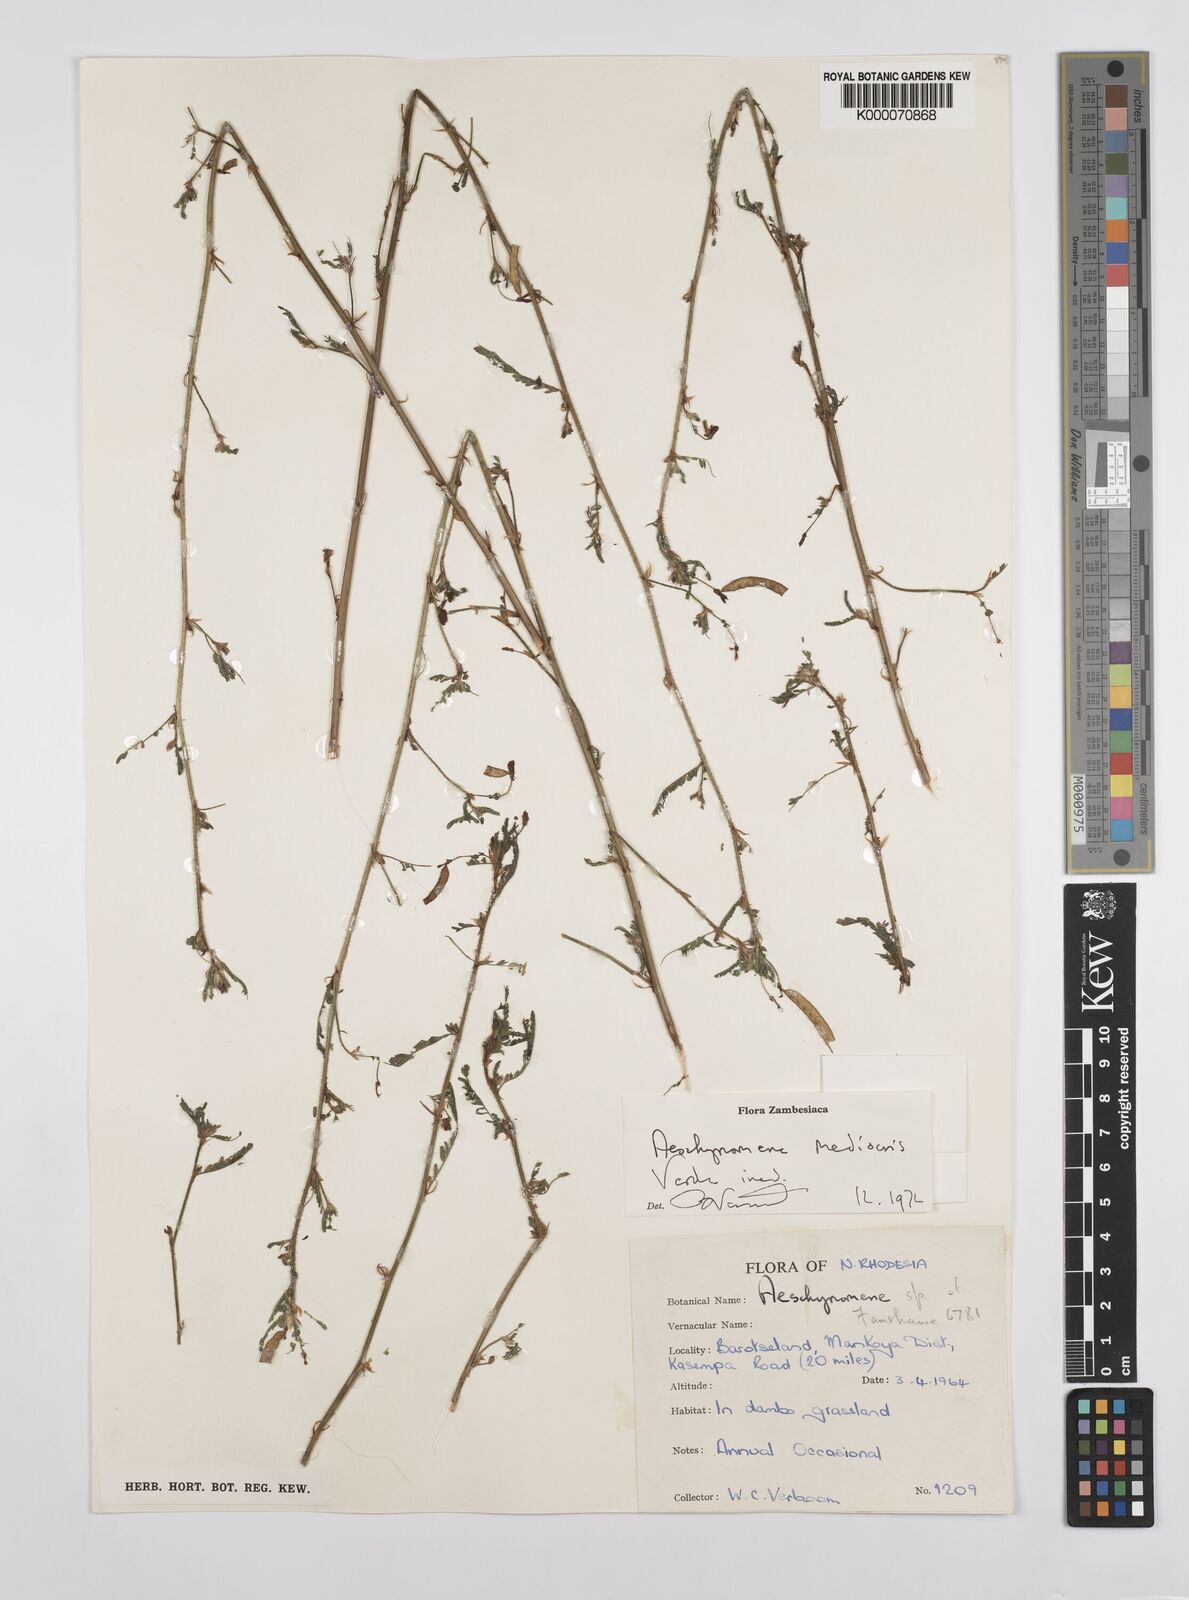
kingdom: Plantae
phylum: Tracheophyta
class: Magnoliopsida
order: Fabales
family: Fabaceae
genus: Aeschynomene
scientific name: Aeschynomene mediocris
